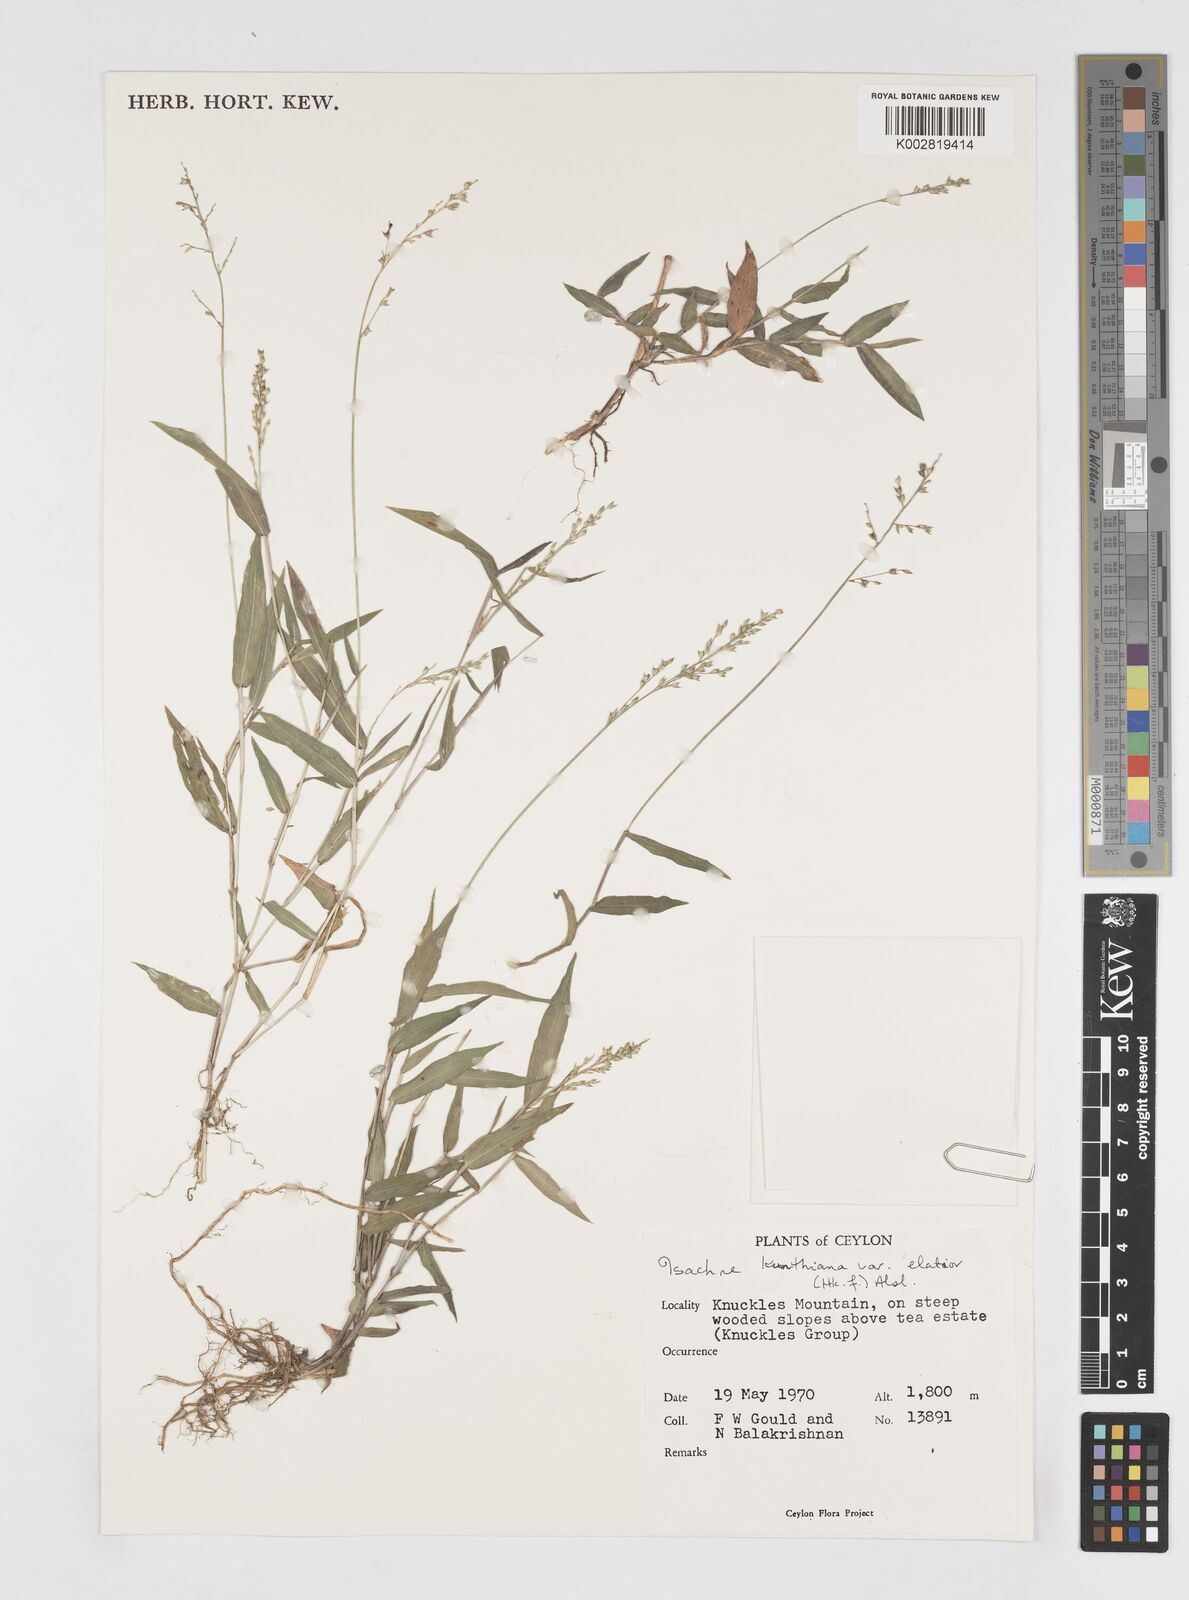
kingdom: Plantae
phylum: Tracheophyta
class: Liliopsida
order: Poales
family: Poaceae
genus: Isachne
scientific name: Isachne kunthiana
